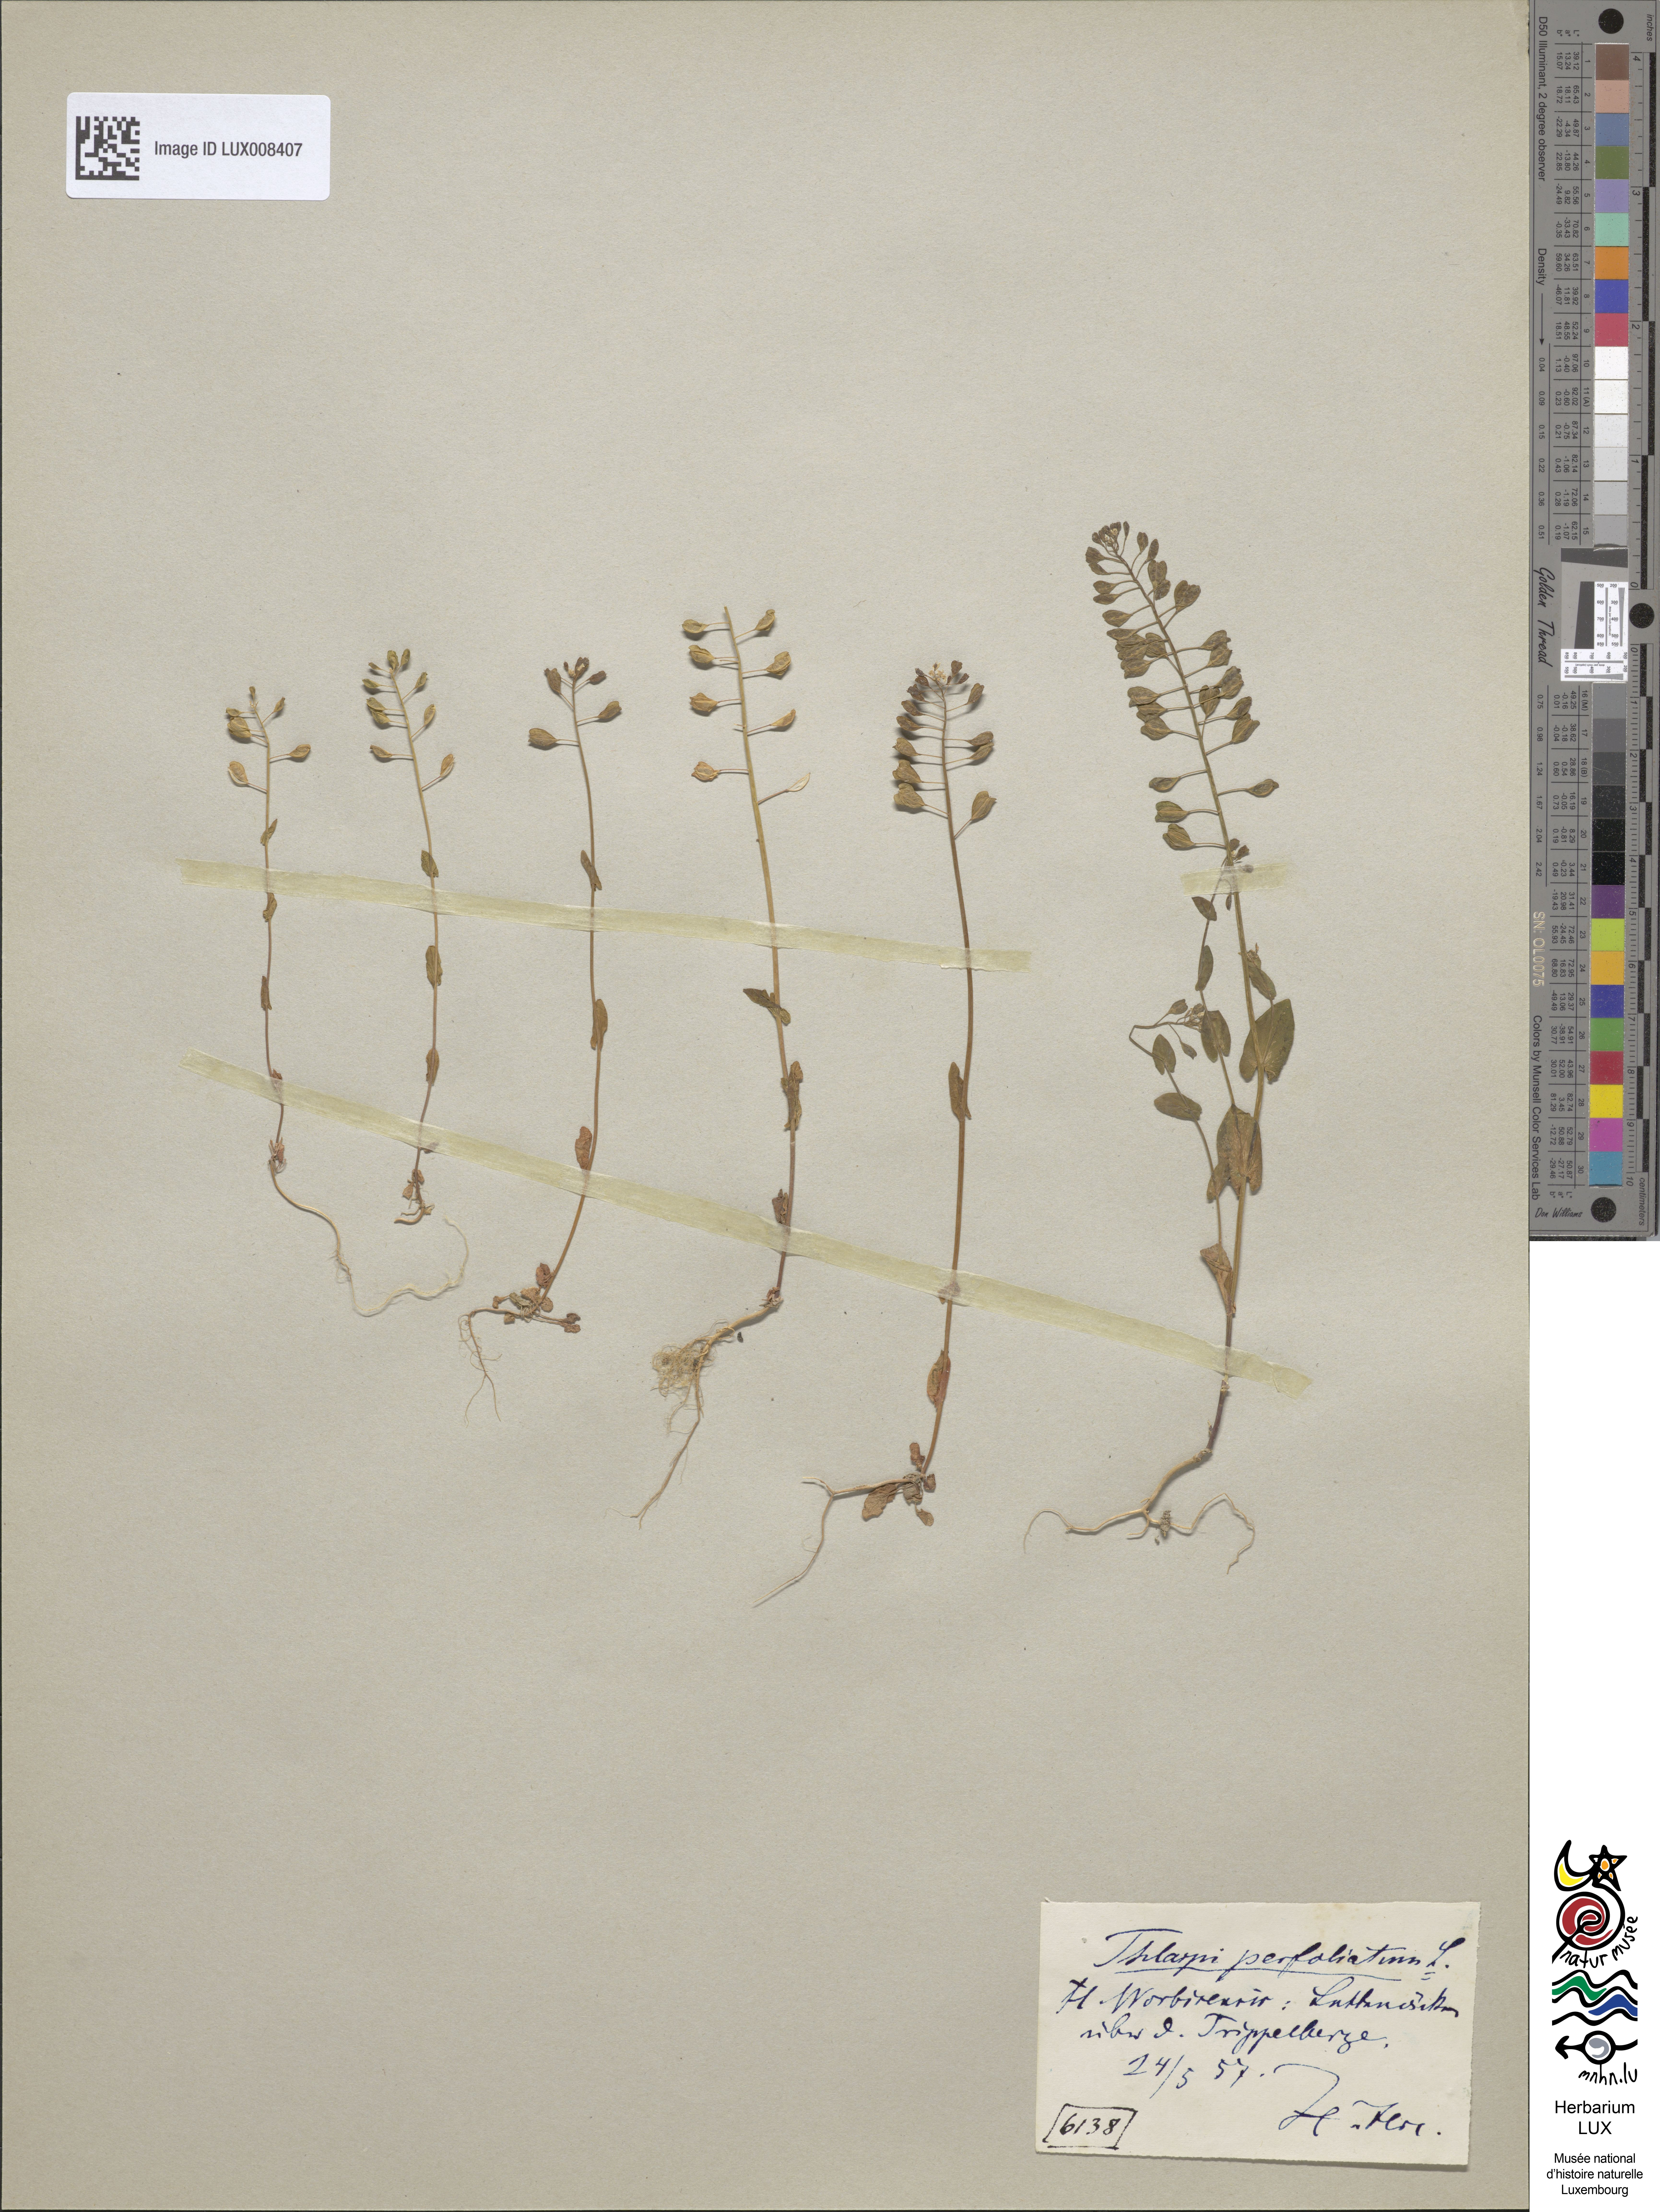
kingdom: Plantae
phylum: Tracheophyta
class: Magnoliopsida
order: Brassicales
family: Brassicaceae
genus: Noccaea
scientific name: Noccaea perfoliata
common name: Perfoliate pennycress
